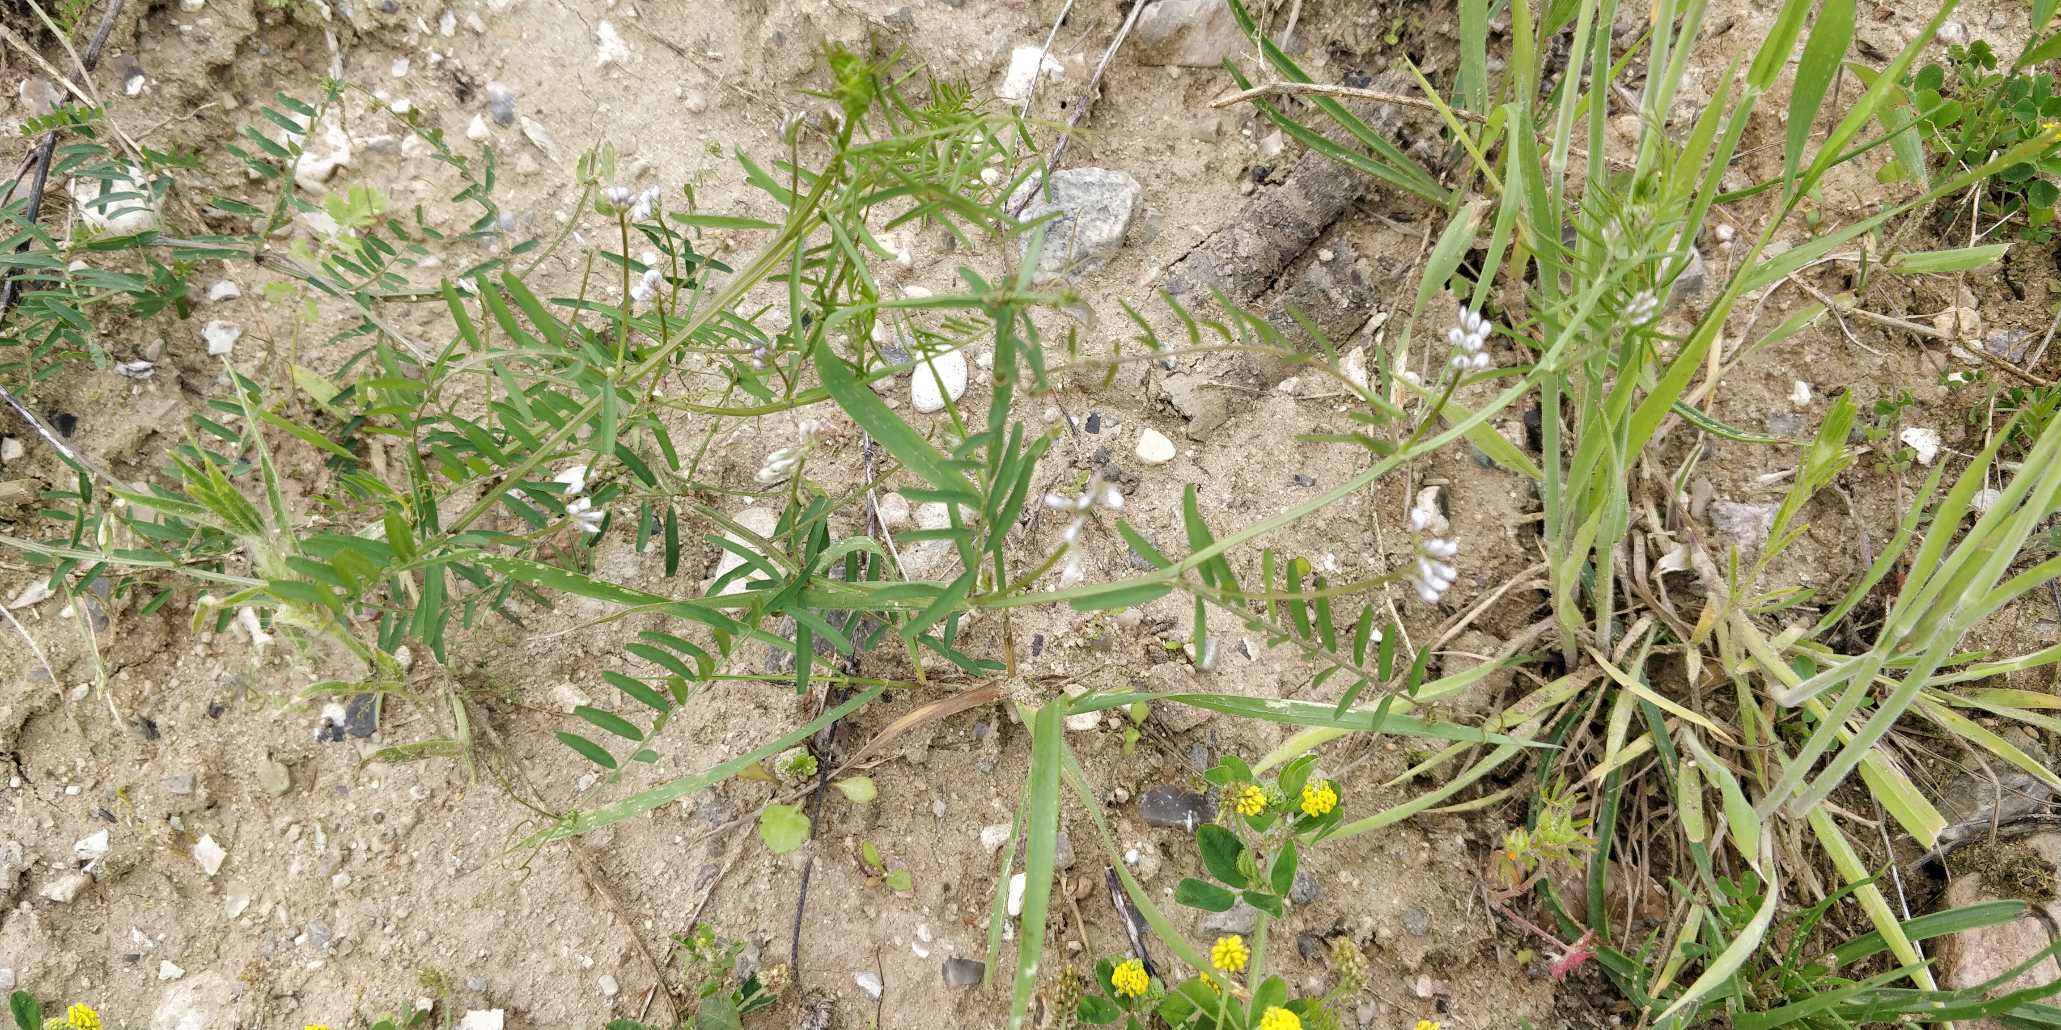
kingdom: Plantae
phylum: Tracheophyta
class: Magnoliopsida
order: Fabales
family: Fabaceae
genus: Vicia
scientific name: Vicia hirsuta
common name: Tofrøet vikke
